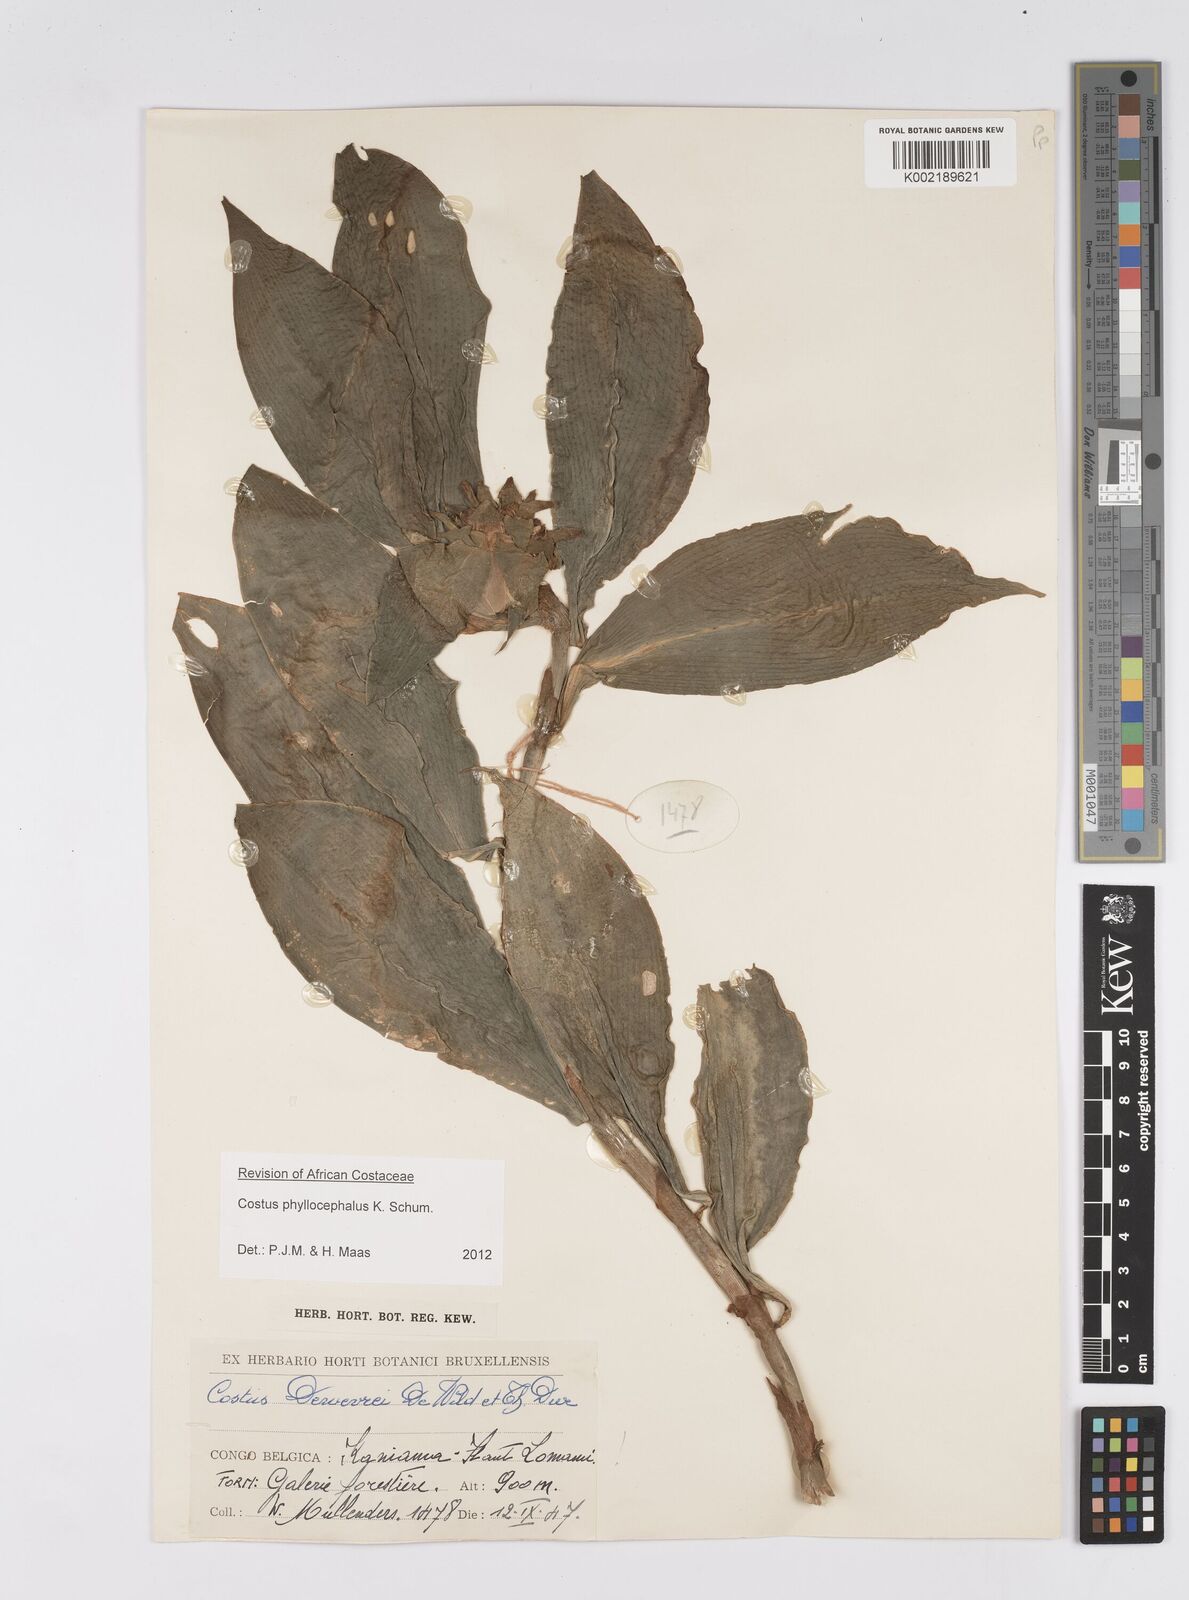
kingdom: Plantae
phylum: Tracheophyta
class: Liliopsida
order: Zingiberales
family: Costaceae
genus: Costus
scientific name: Costus phyllocephalus
